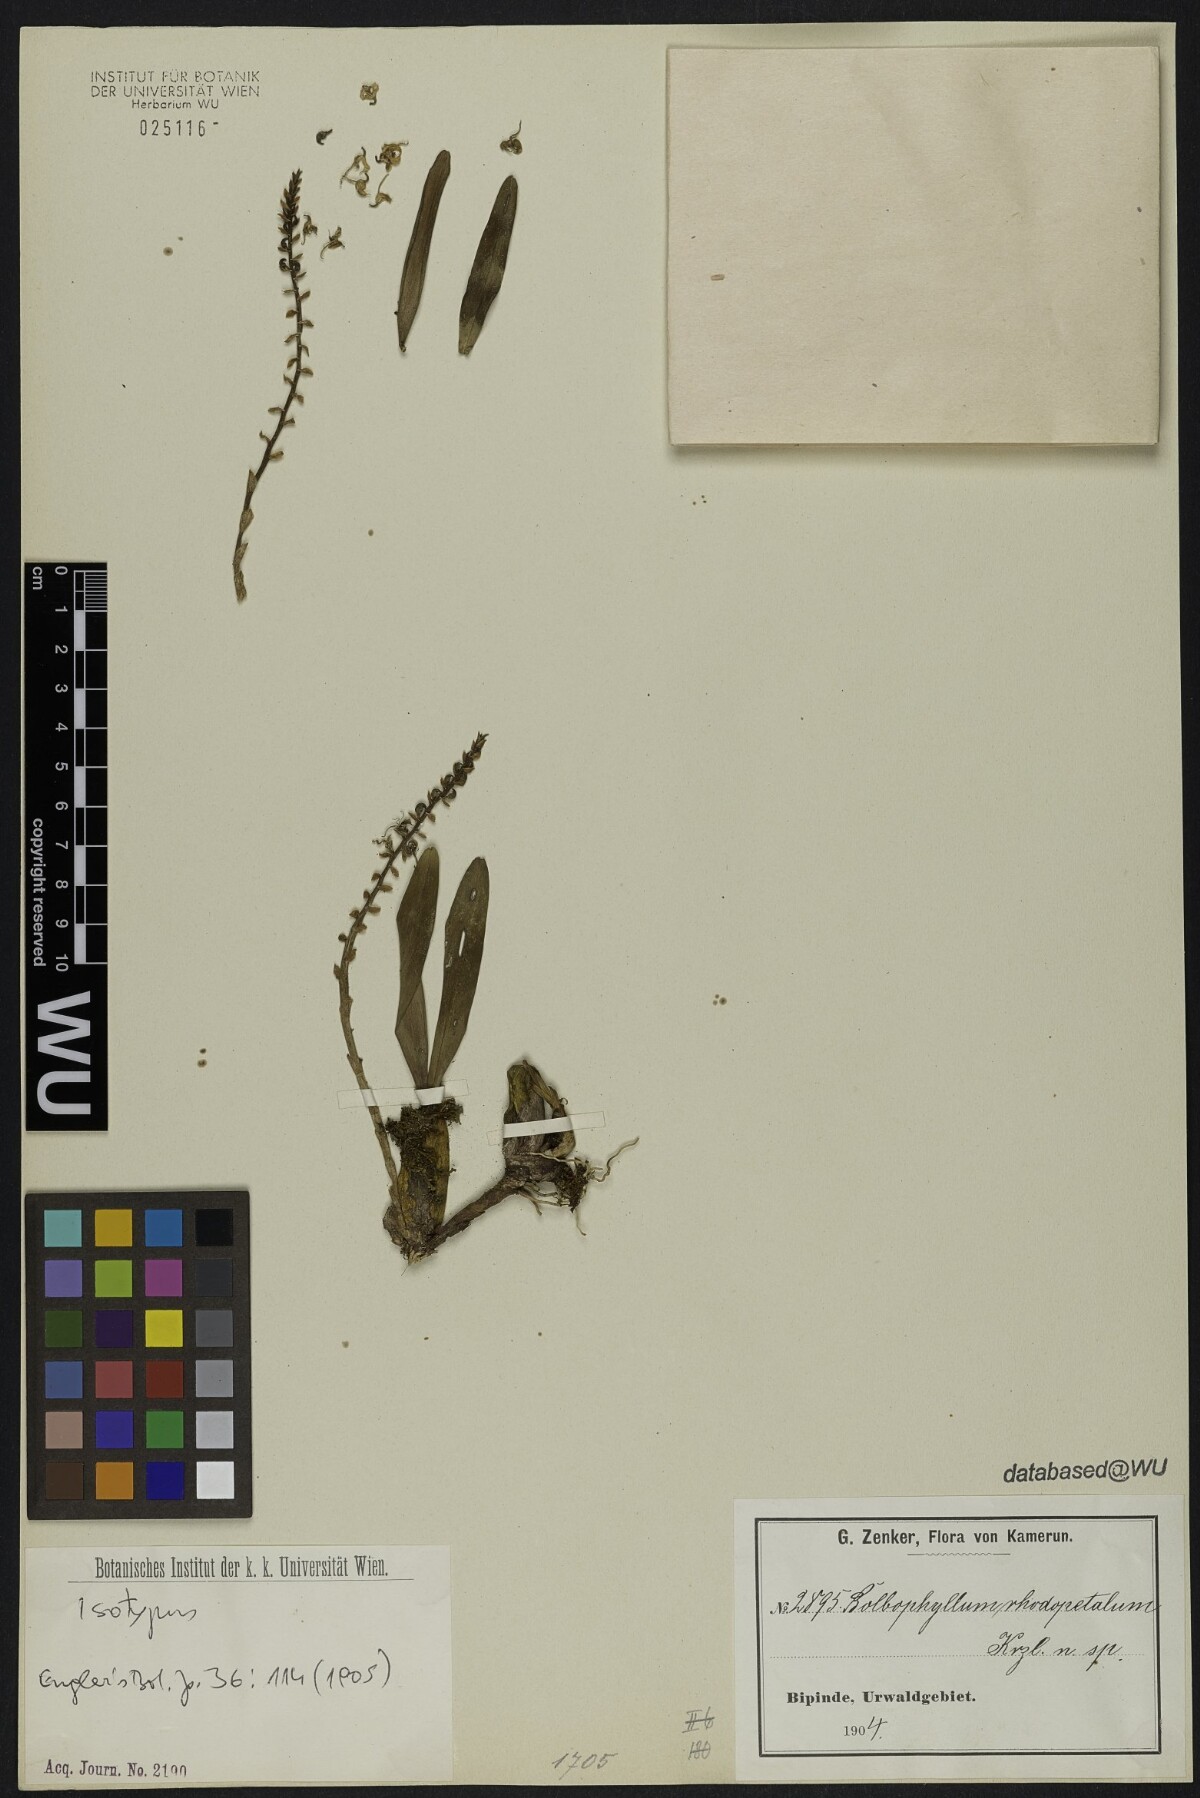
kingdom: Plantae
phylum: Tracheophyta
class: Liliopsida
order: Asparagales
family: Orchidaceae
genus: Bulbophyllum
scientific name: Bulbophyllum sandersonii
